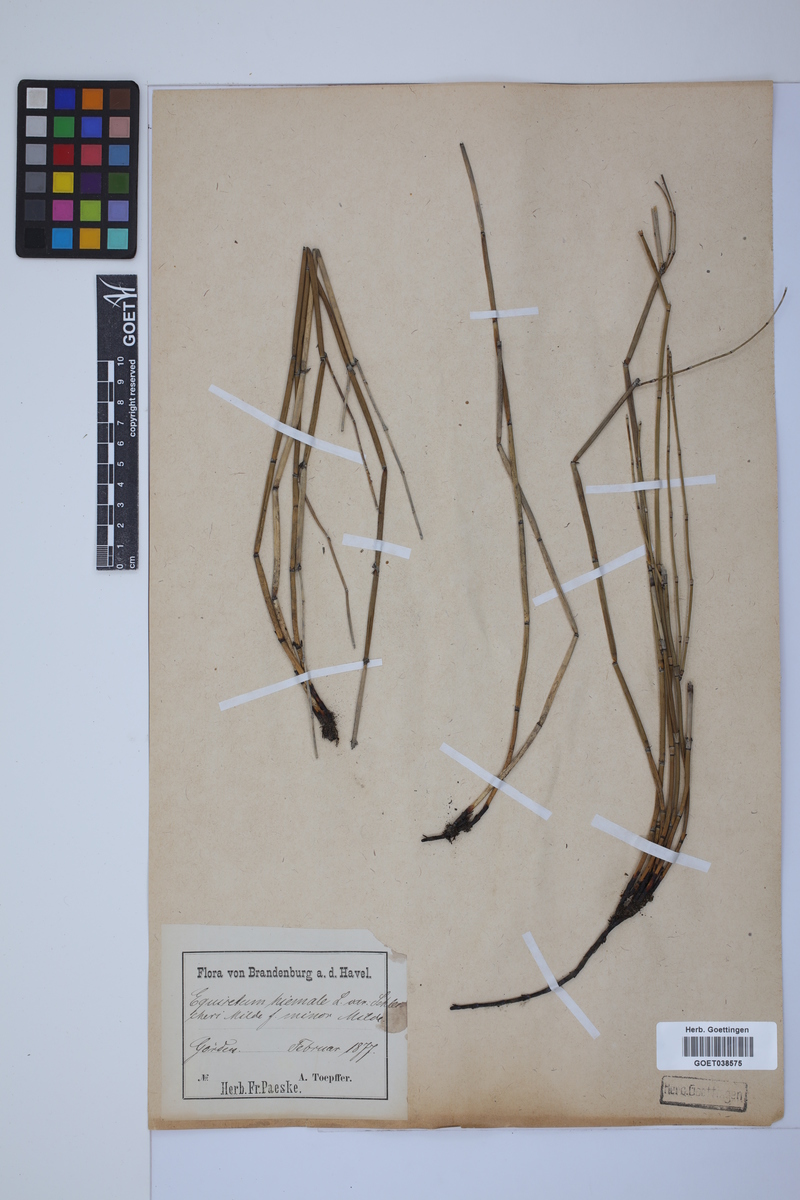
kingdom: Plantae
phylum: Tracheophyta
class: Polypodiopsida
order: Equisetales
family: Equisetaceae
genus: Equisetum
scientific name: Equisetum hyemale
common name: Rough horsetail
